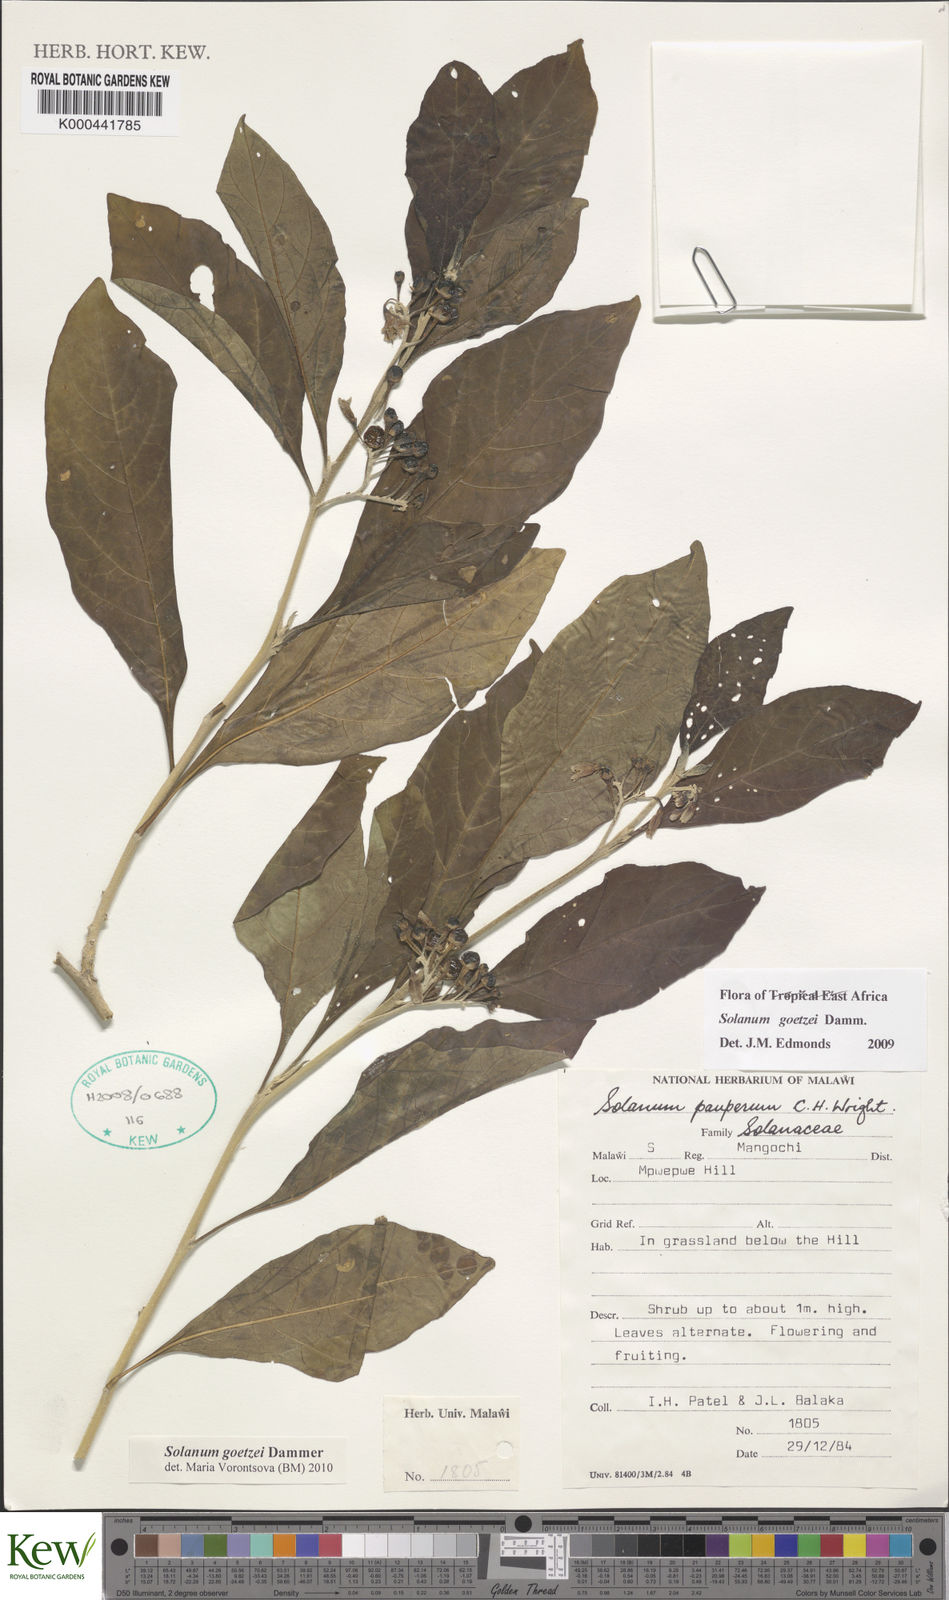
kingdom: Plantae
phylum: Tracheophyta
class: Magnoliopsida
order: Solanales
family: Solanaceae
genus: Solanum
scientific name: Solanum goetzei
